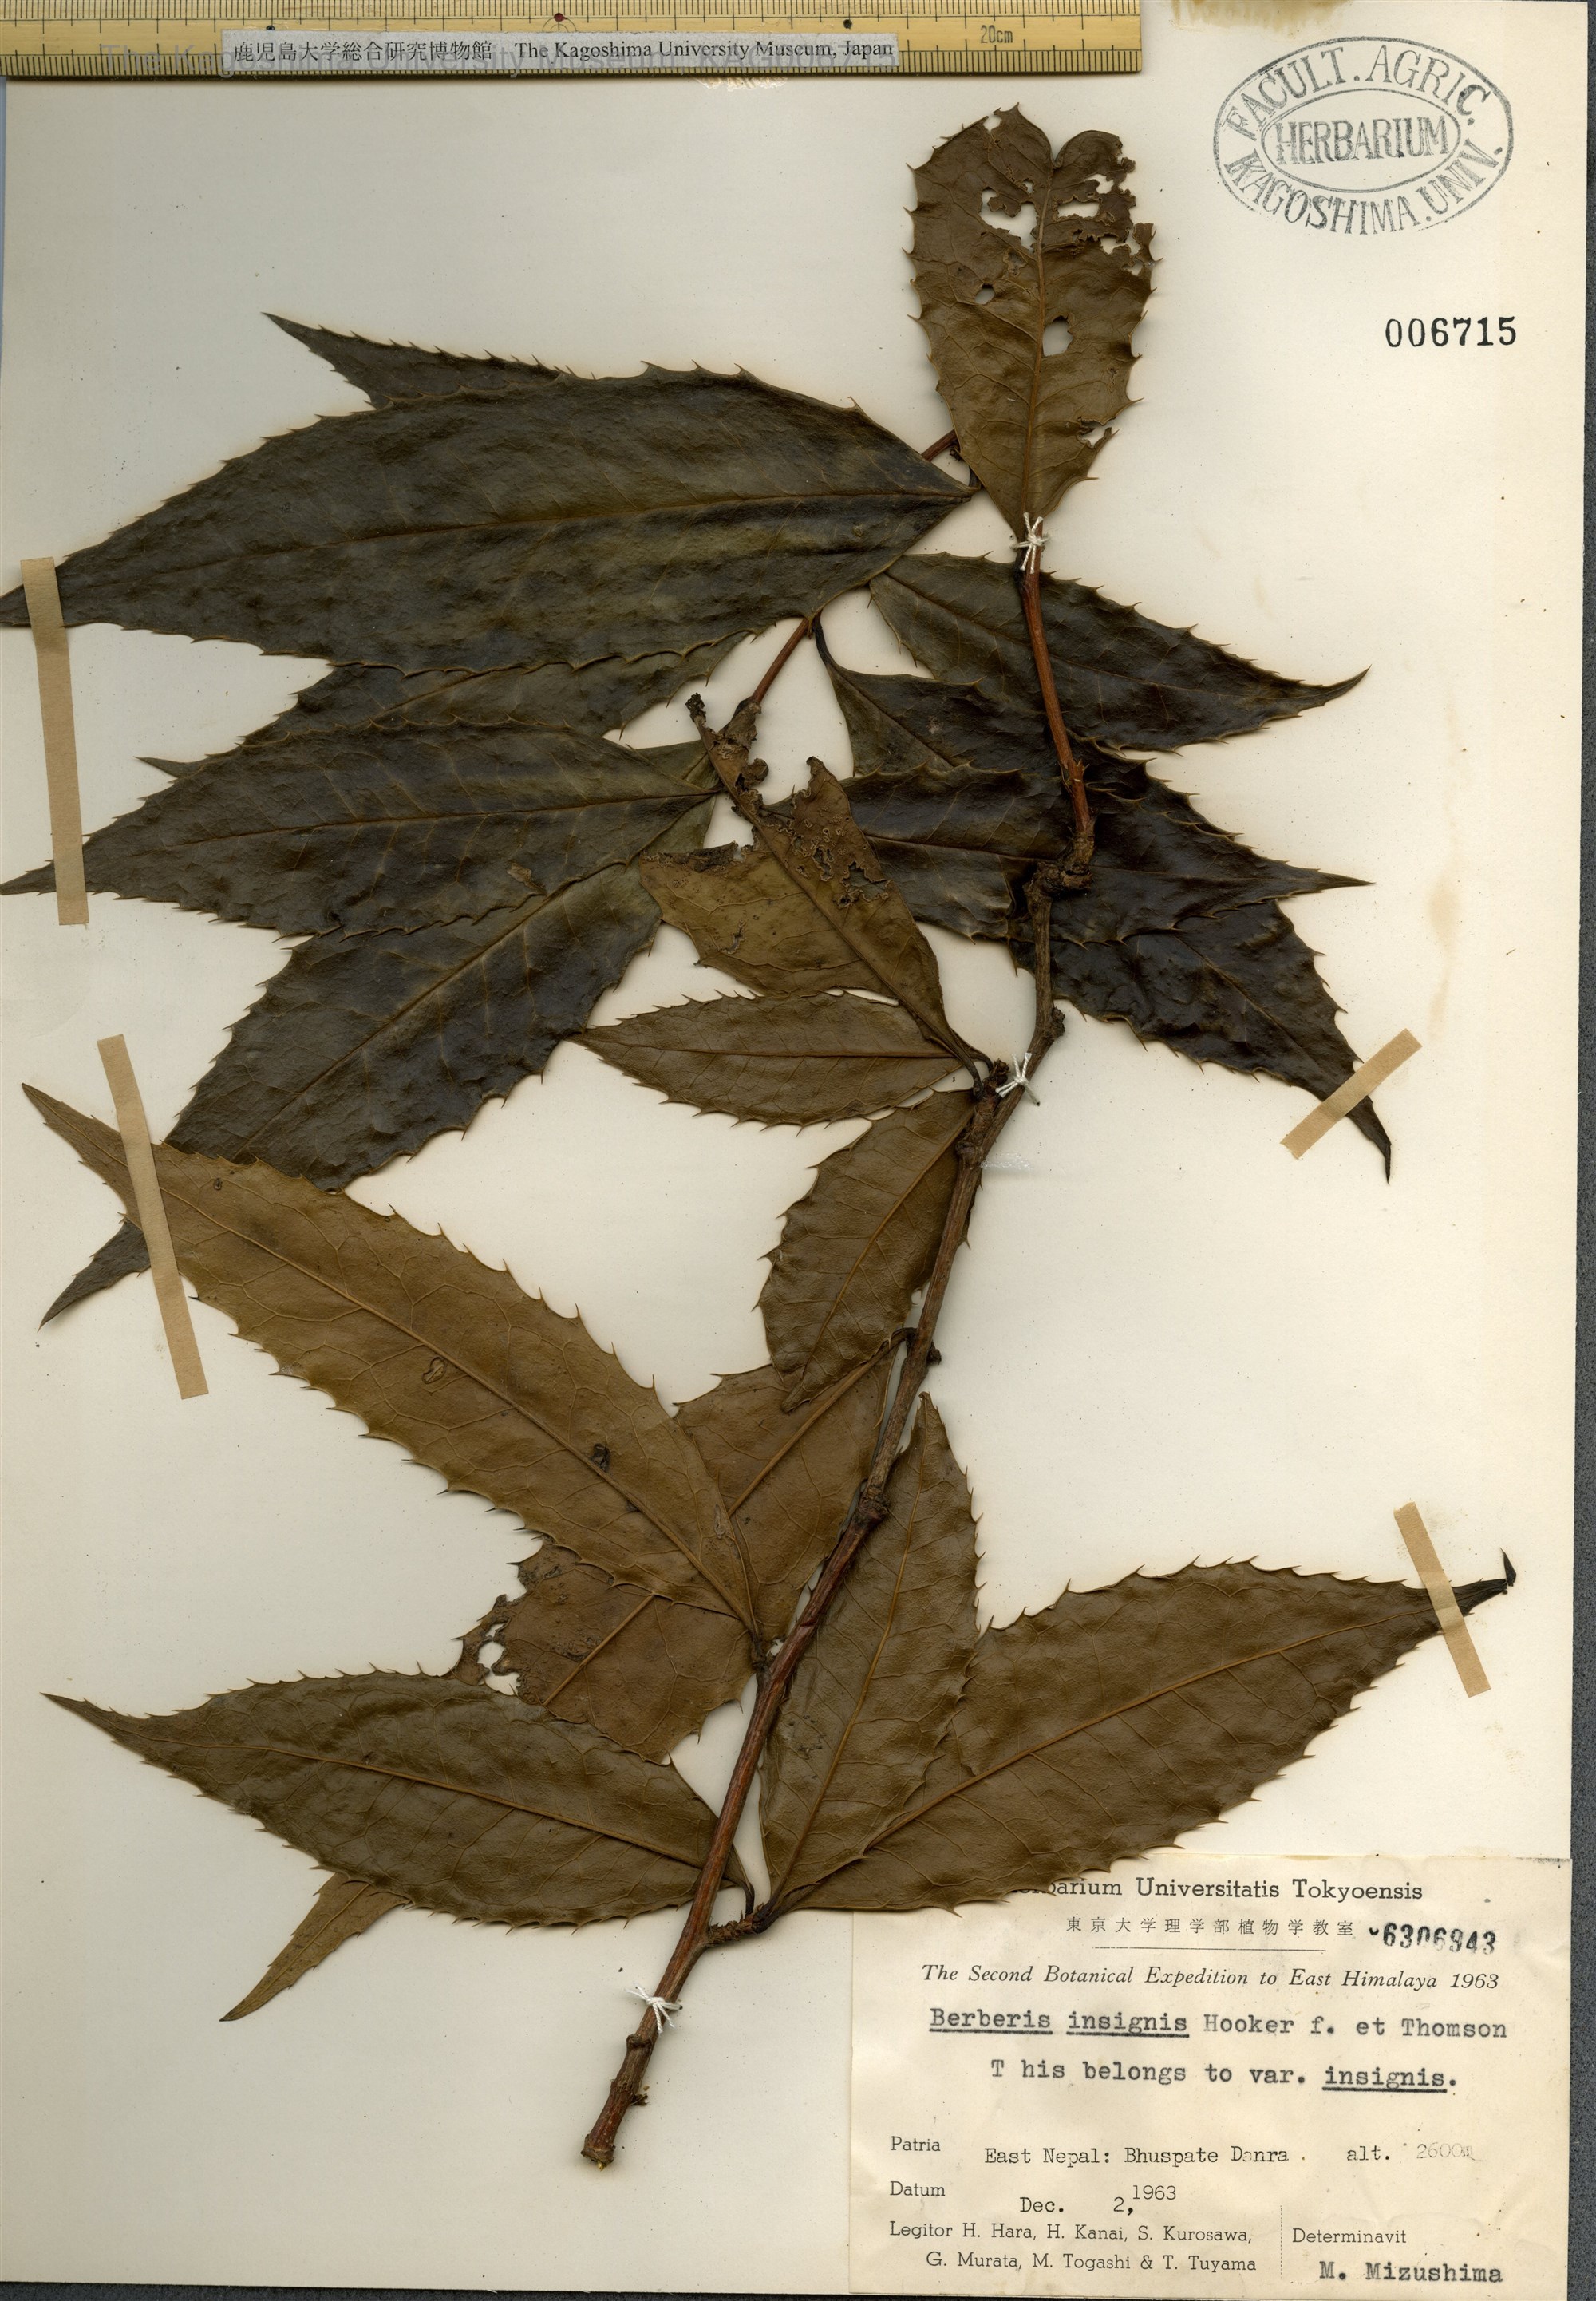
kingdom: Plantae
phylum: Tracheophyta
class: Magnoliopsida
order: Ranunculales
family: Berberidaceae
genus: Berberis
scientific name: Berberis insignis
